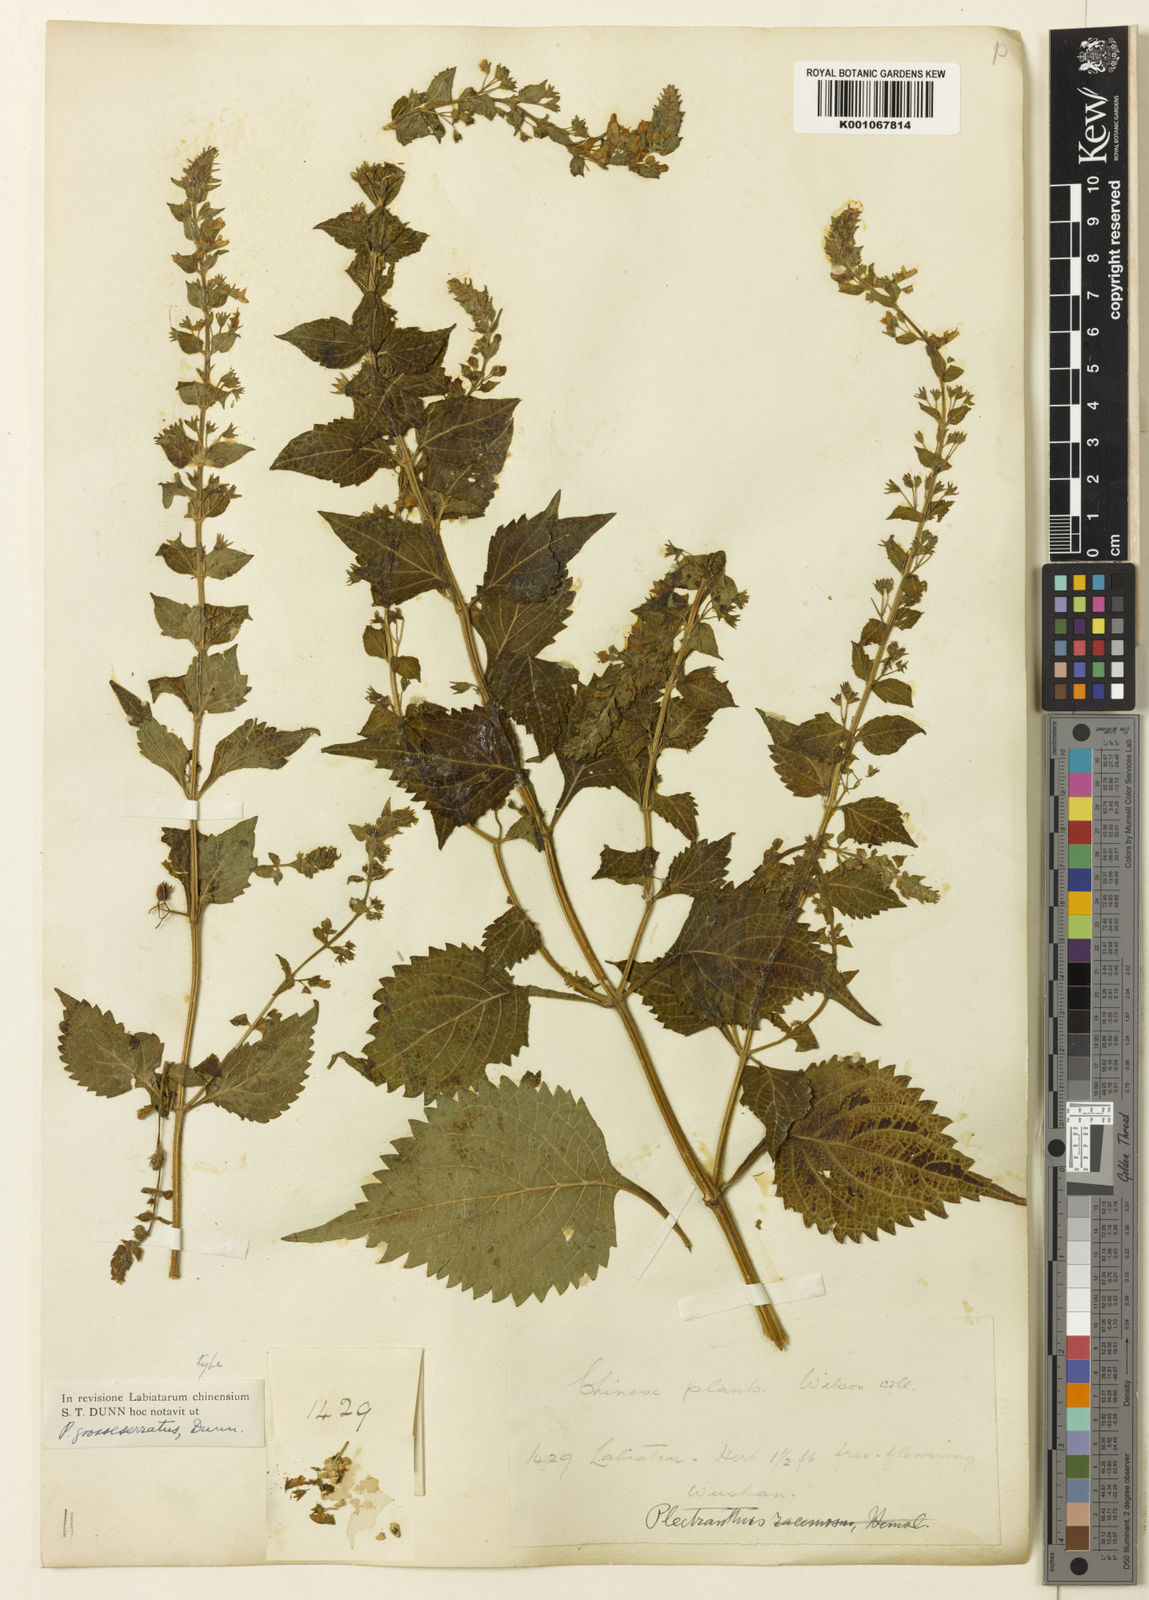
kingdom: Plantae
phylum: Tracheophyta
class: Magnoliopsida
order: Lamiales
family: Lamiaceae
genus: Isodon
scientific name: Isodon
